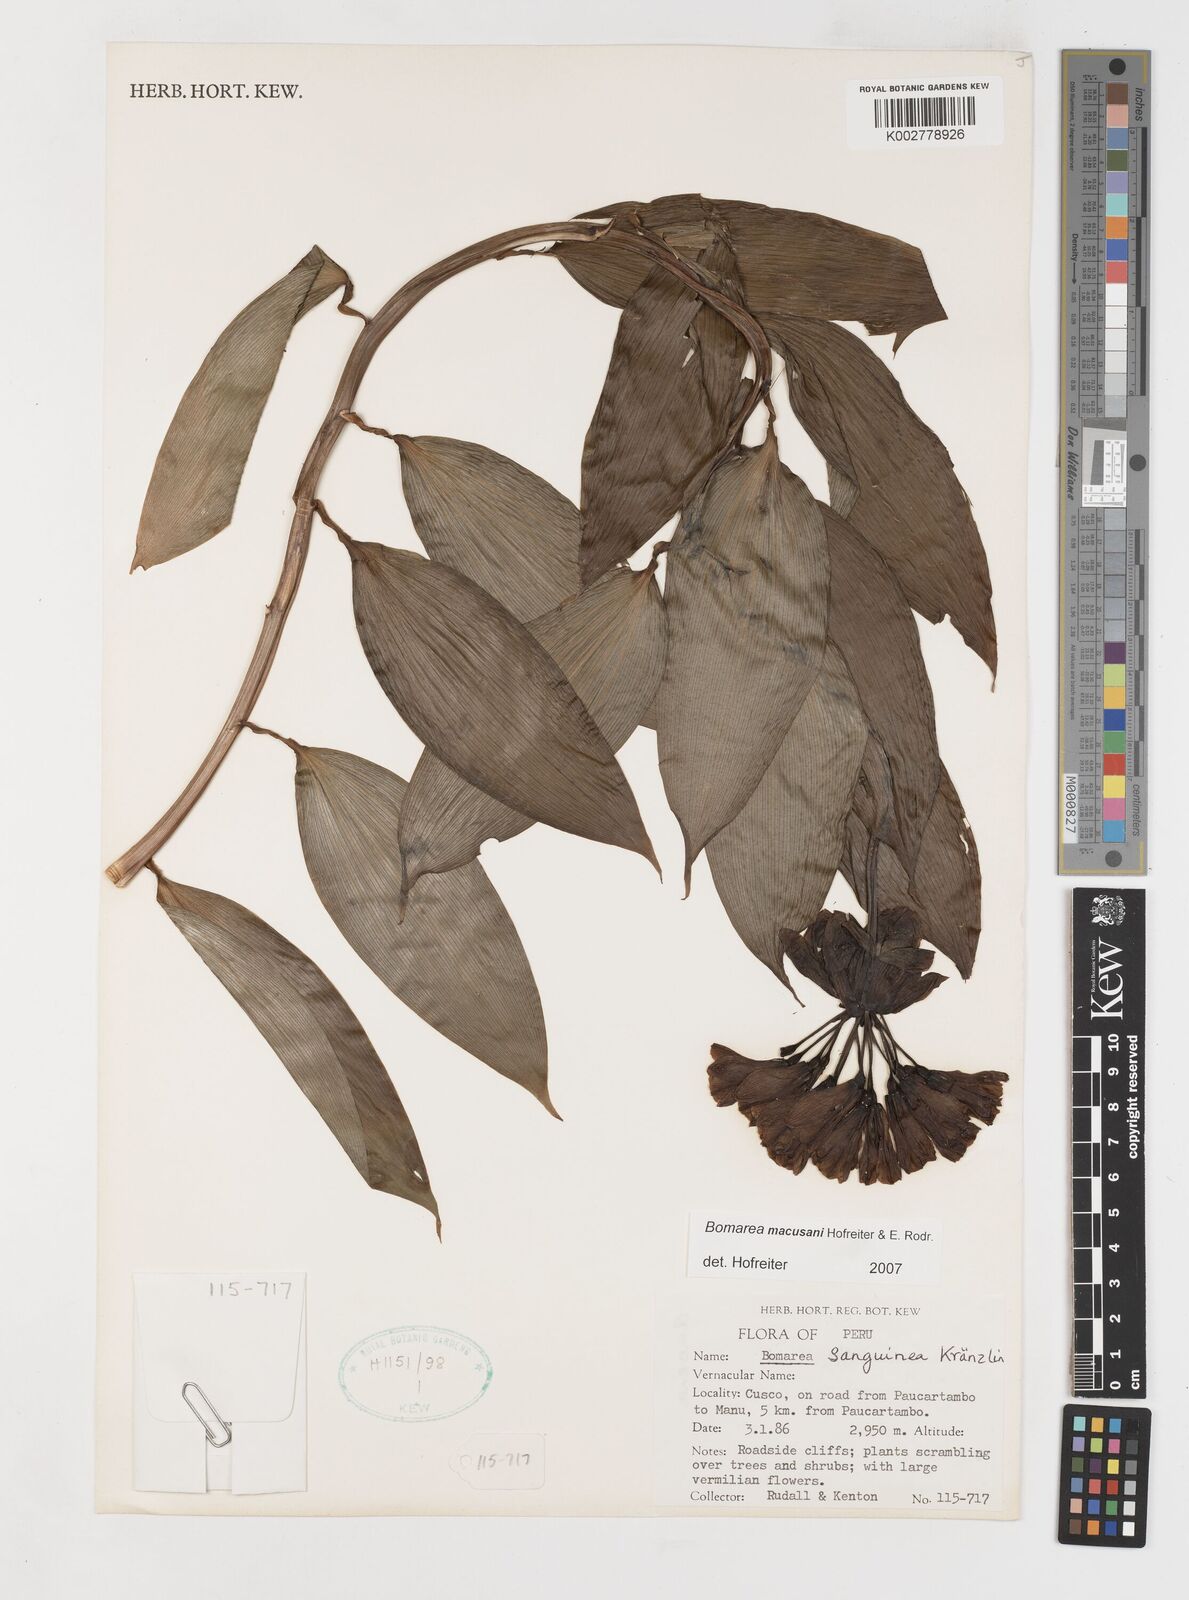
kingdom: Plantae
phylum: Tracheophyta
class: Liliopsida
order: Liliales
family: Alstroemeriaceae
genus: Bomarea
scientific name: Bomarea macusanii
